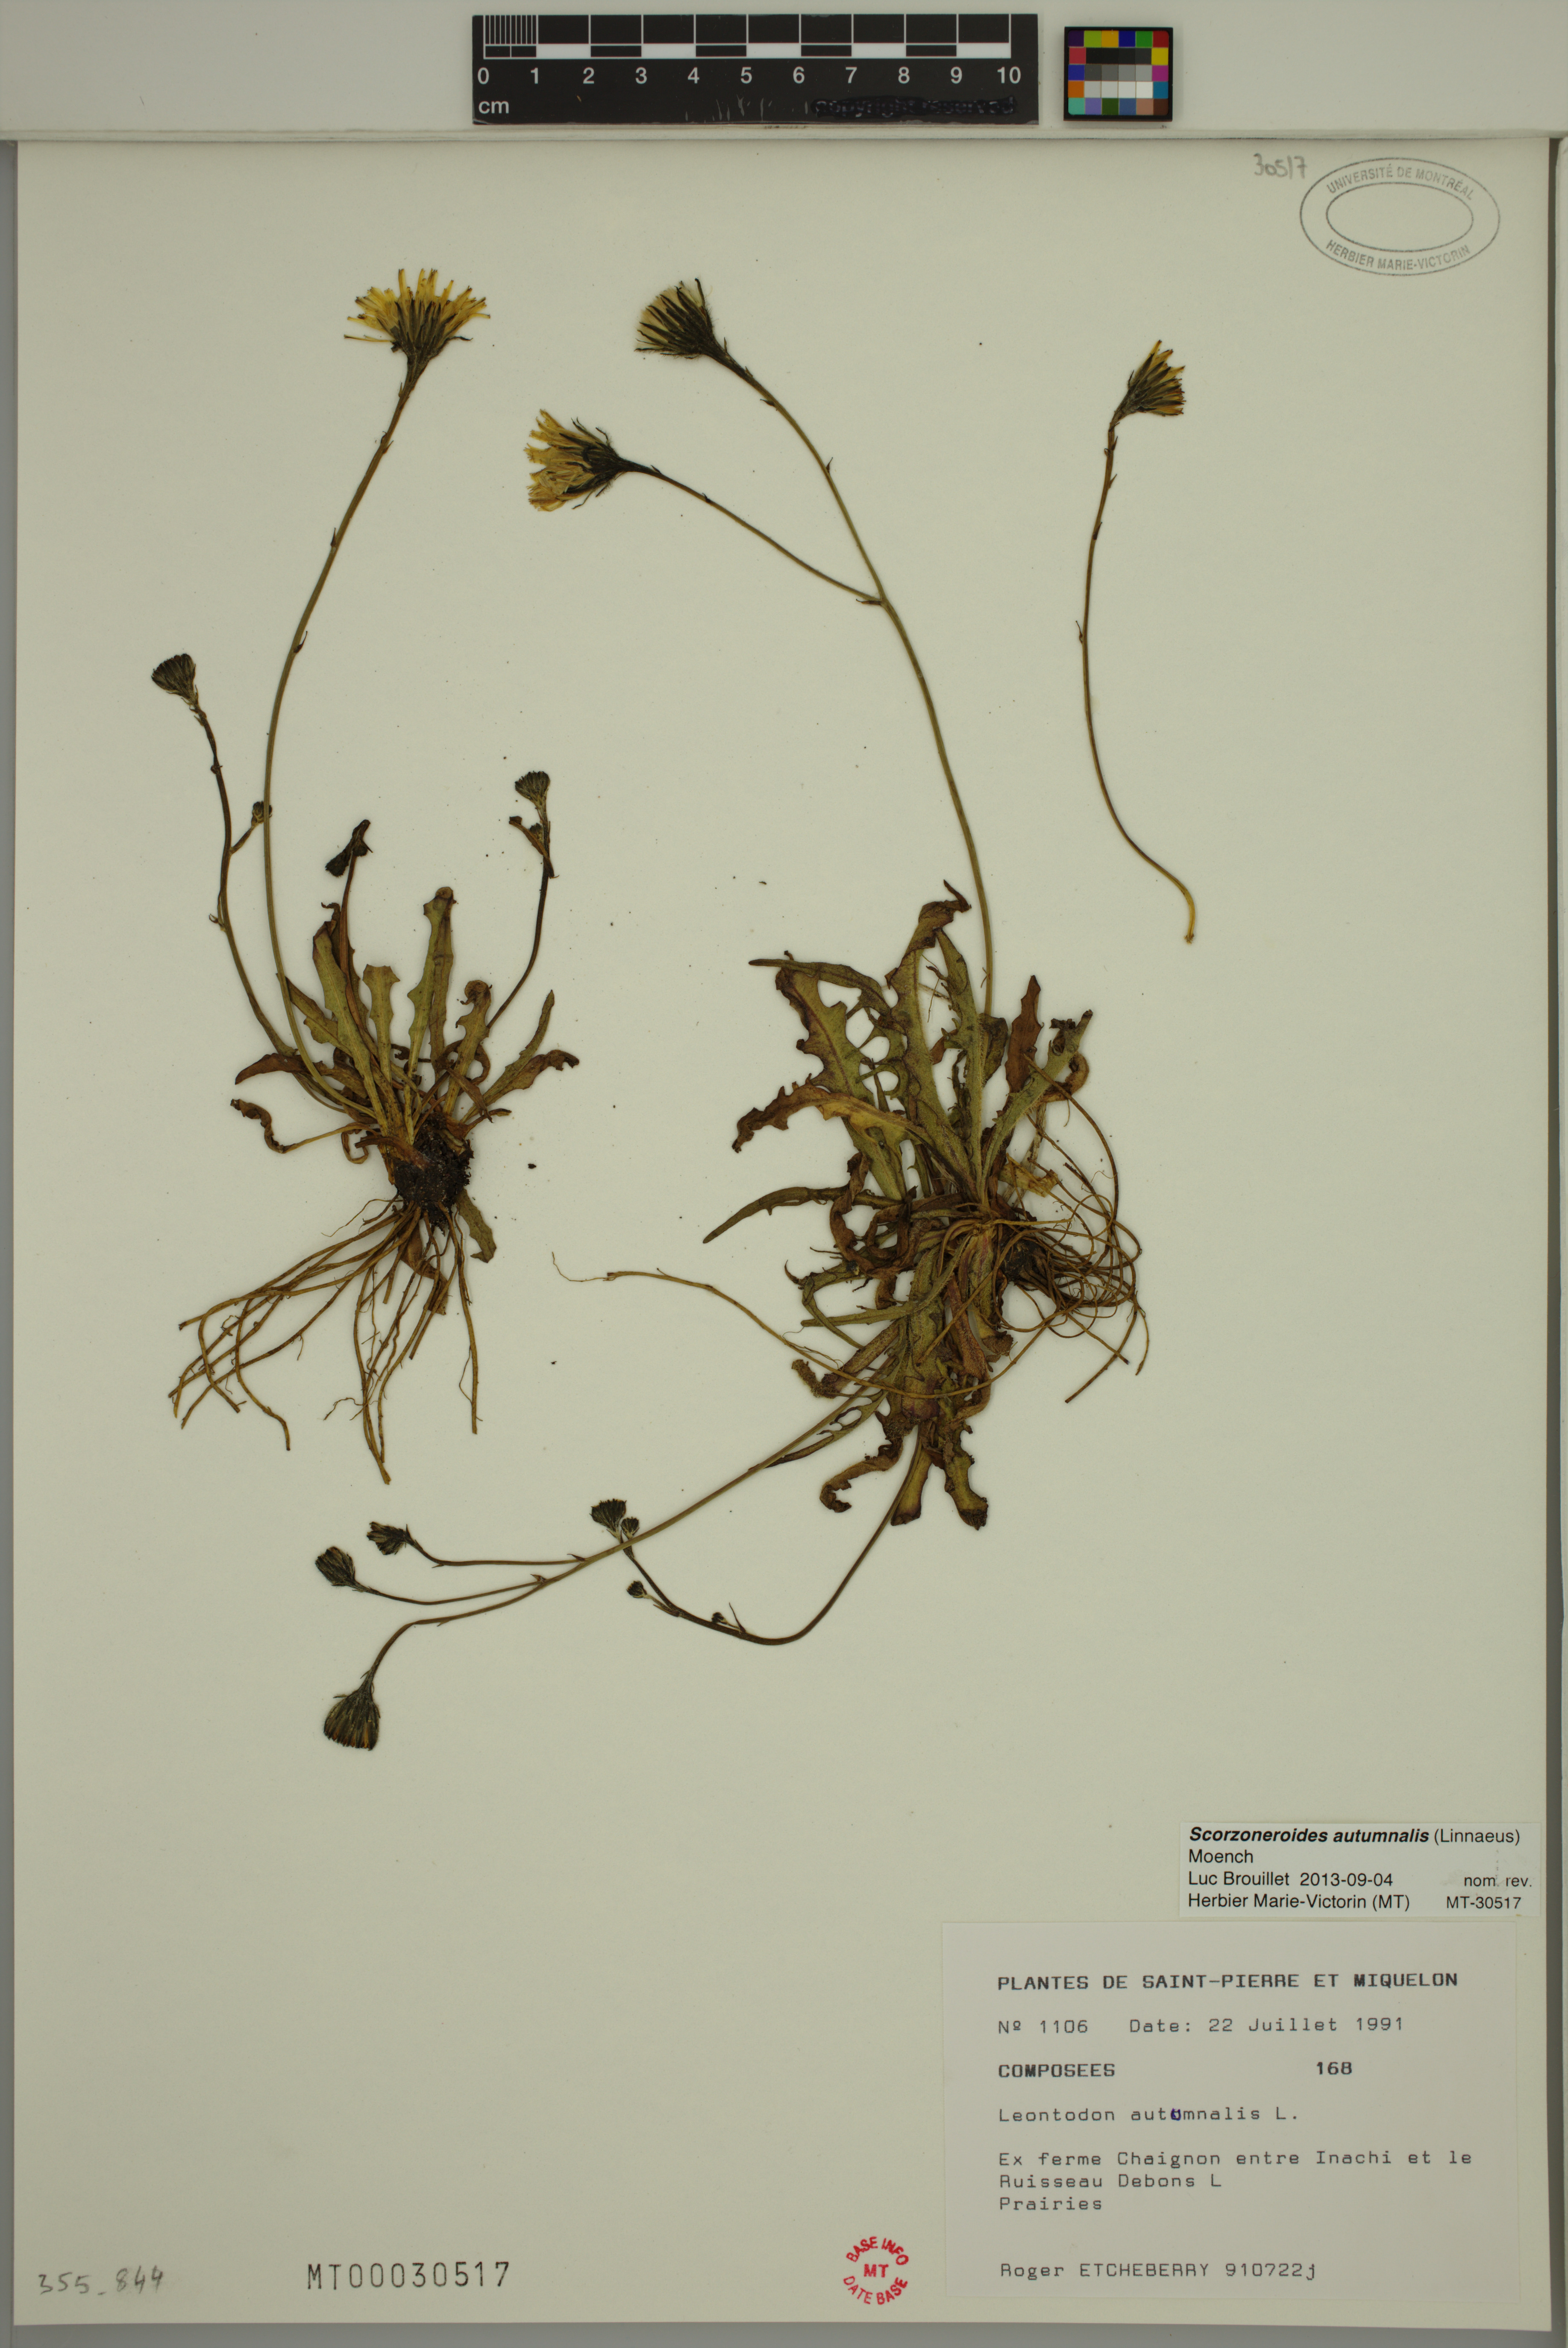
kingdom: Plantae
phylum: Tracheophyta
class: Magnoliopsida
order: Asterales
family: Asteraceae
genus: Scorzoneroides
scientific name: Scorzoneroides autumnalis
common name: Autumn hawkbit
